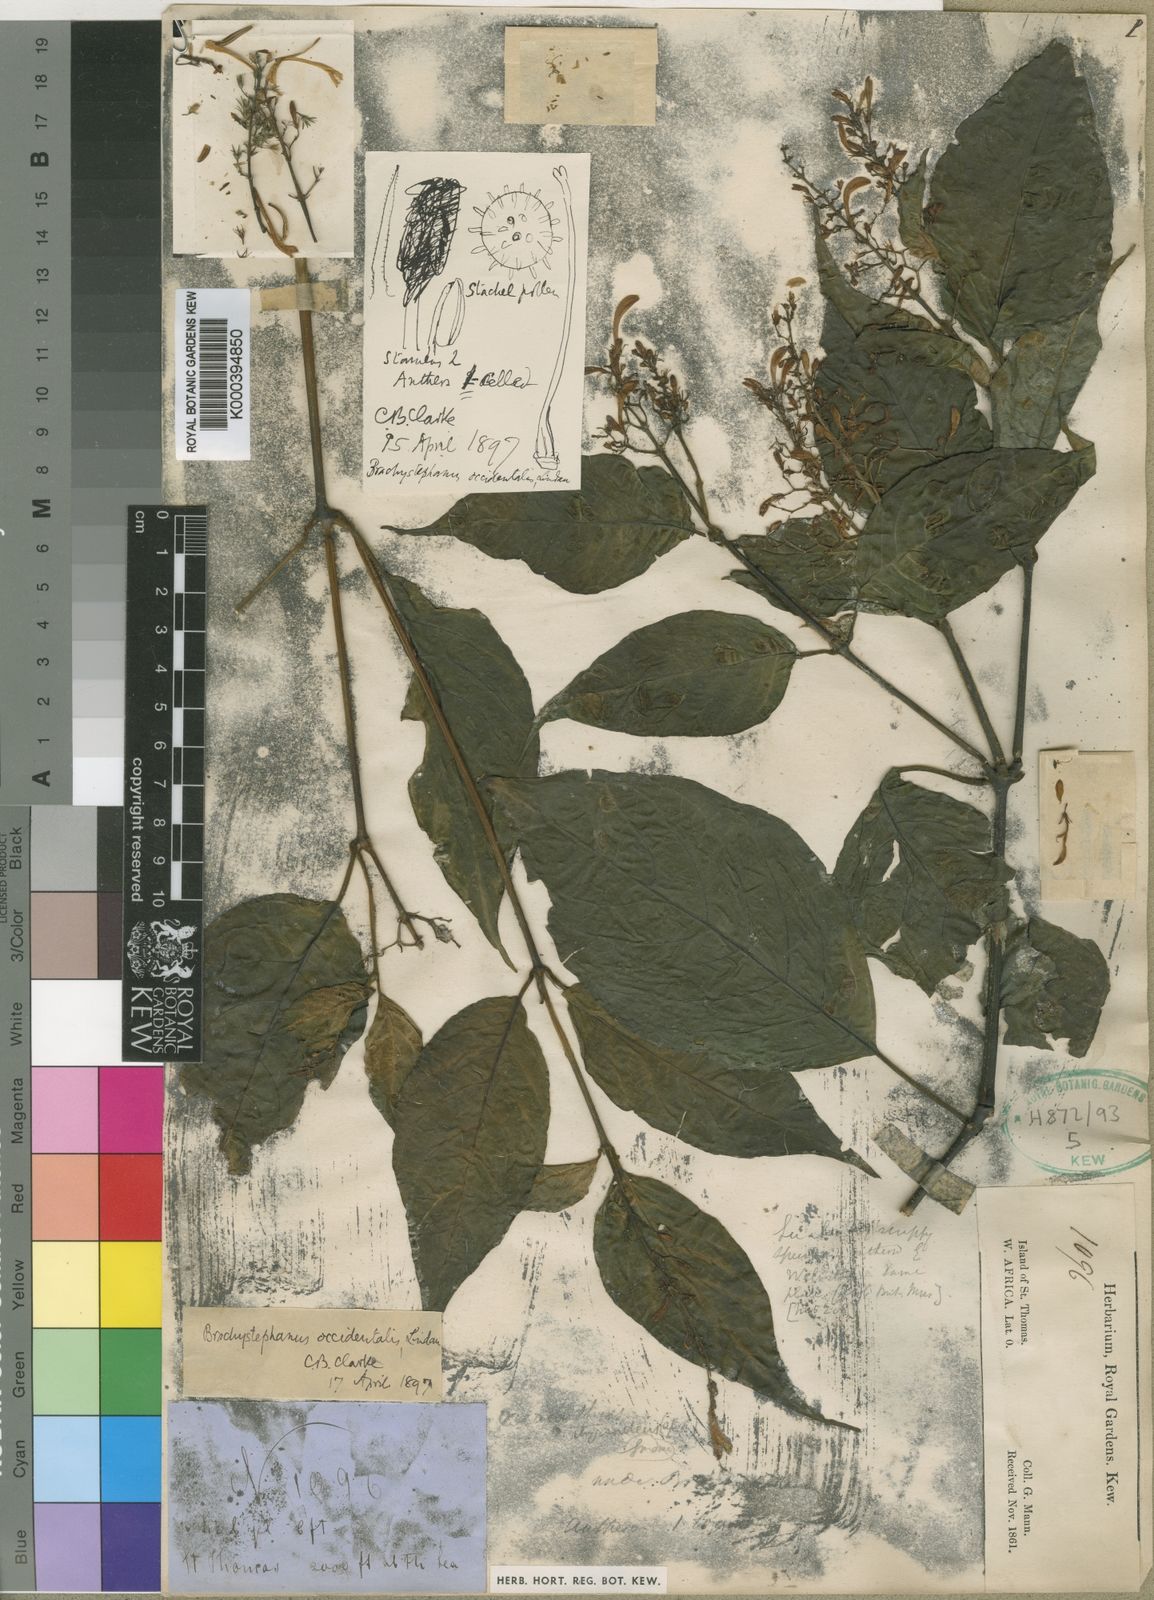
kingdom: Plantae
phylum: Tracheophyta
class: Magnoliopsida
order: Lamiales
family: Acanthaceae
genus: Brachystephanus
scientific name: Brachystephanus occidentalis
